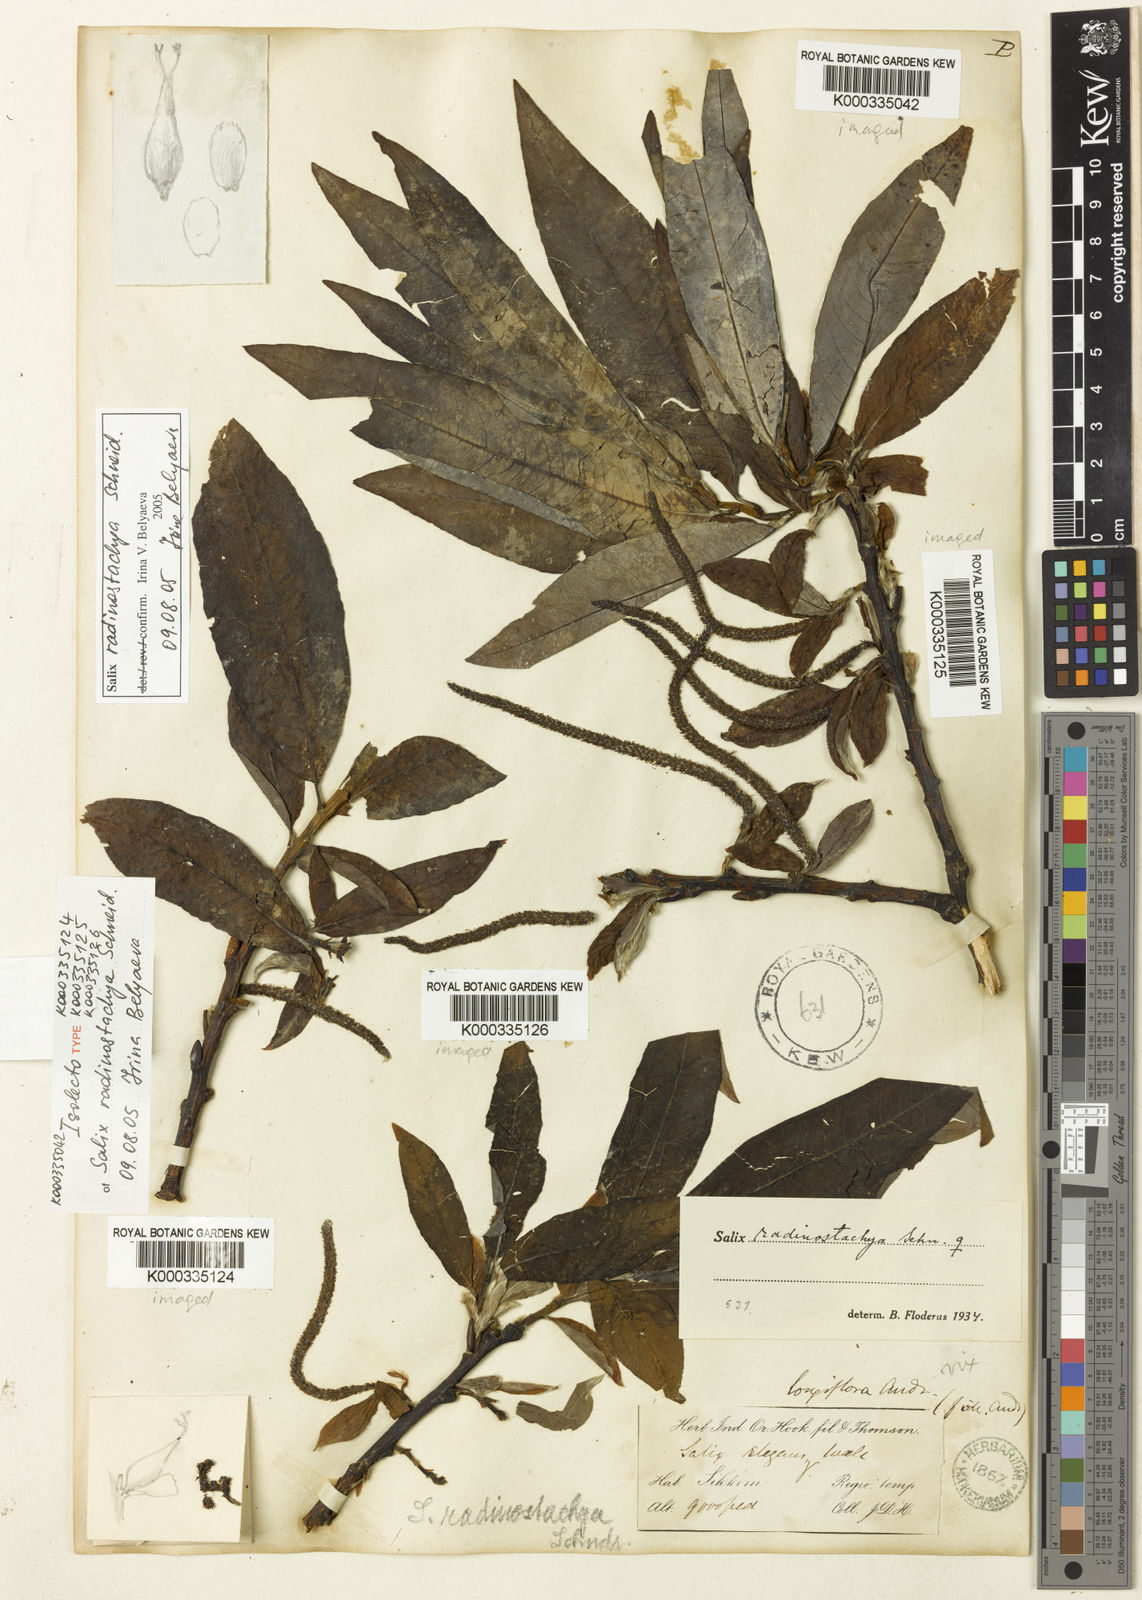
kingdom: Plantae
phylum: Tracheophyta
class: Magnoliopsida
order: Malpighiales
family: Salicaceae
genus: Salix
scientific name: Salix radinostachya
